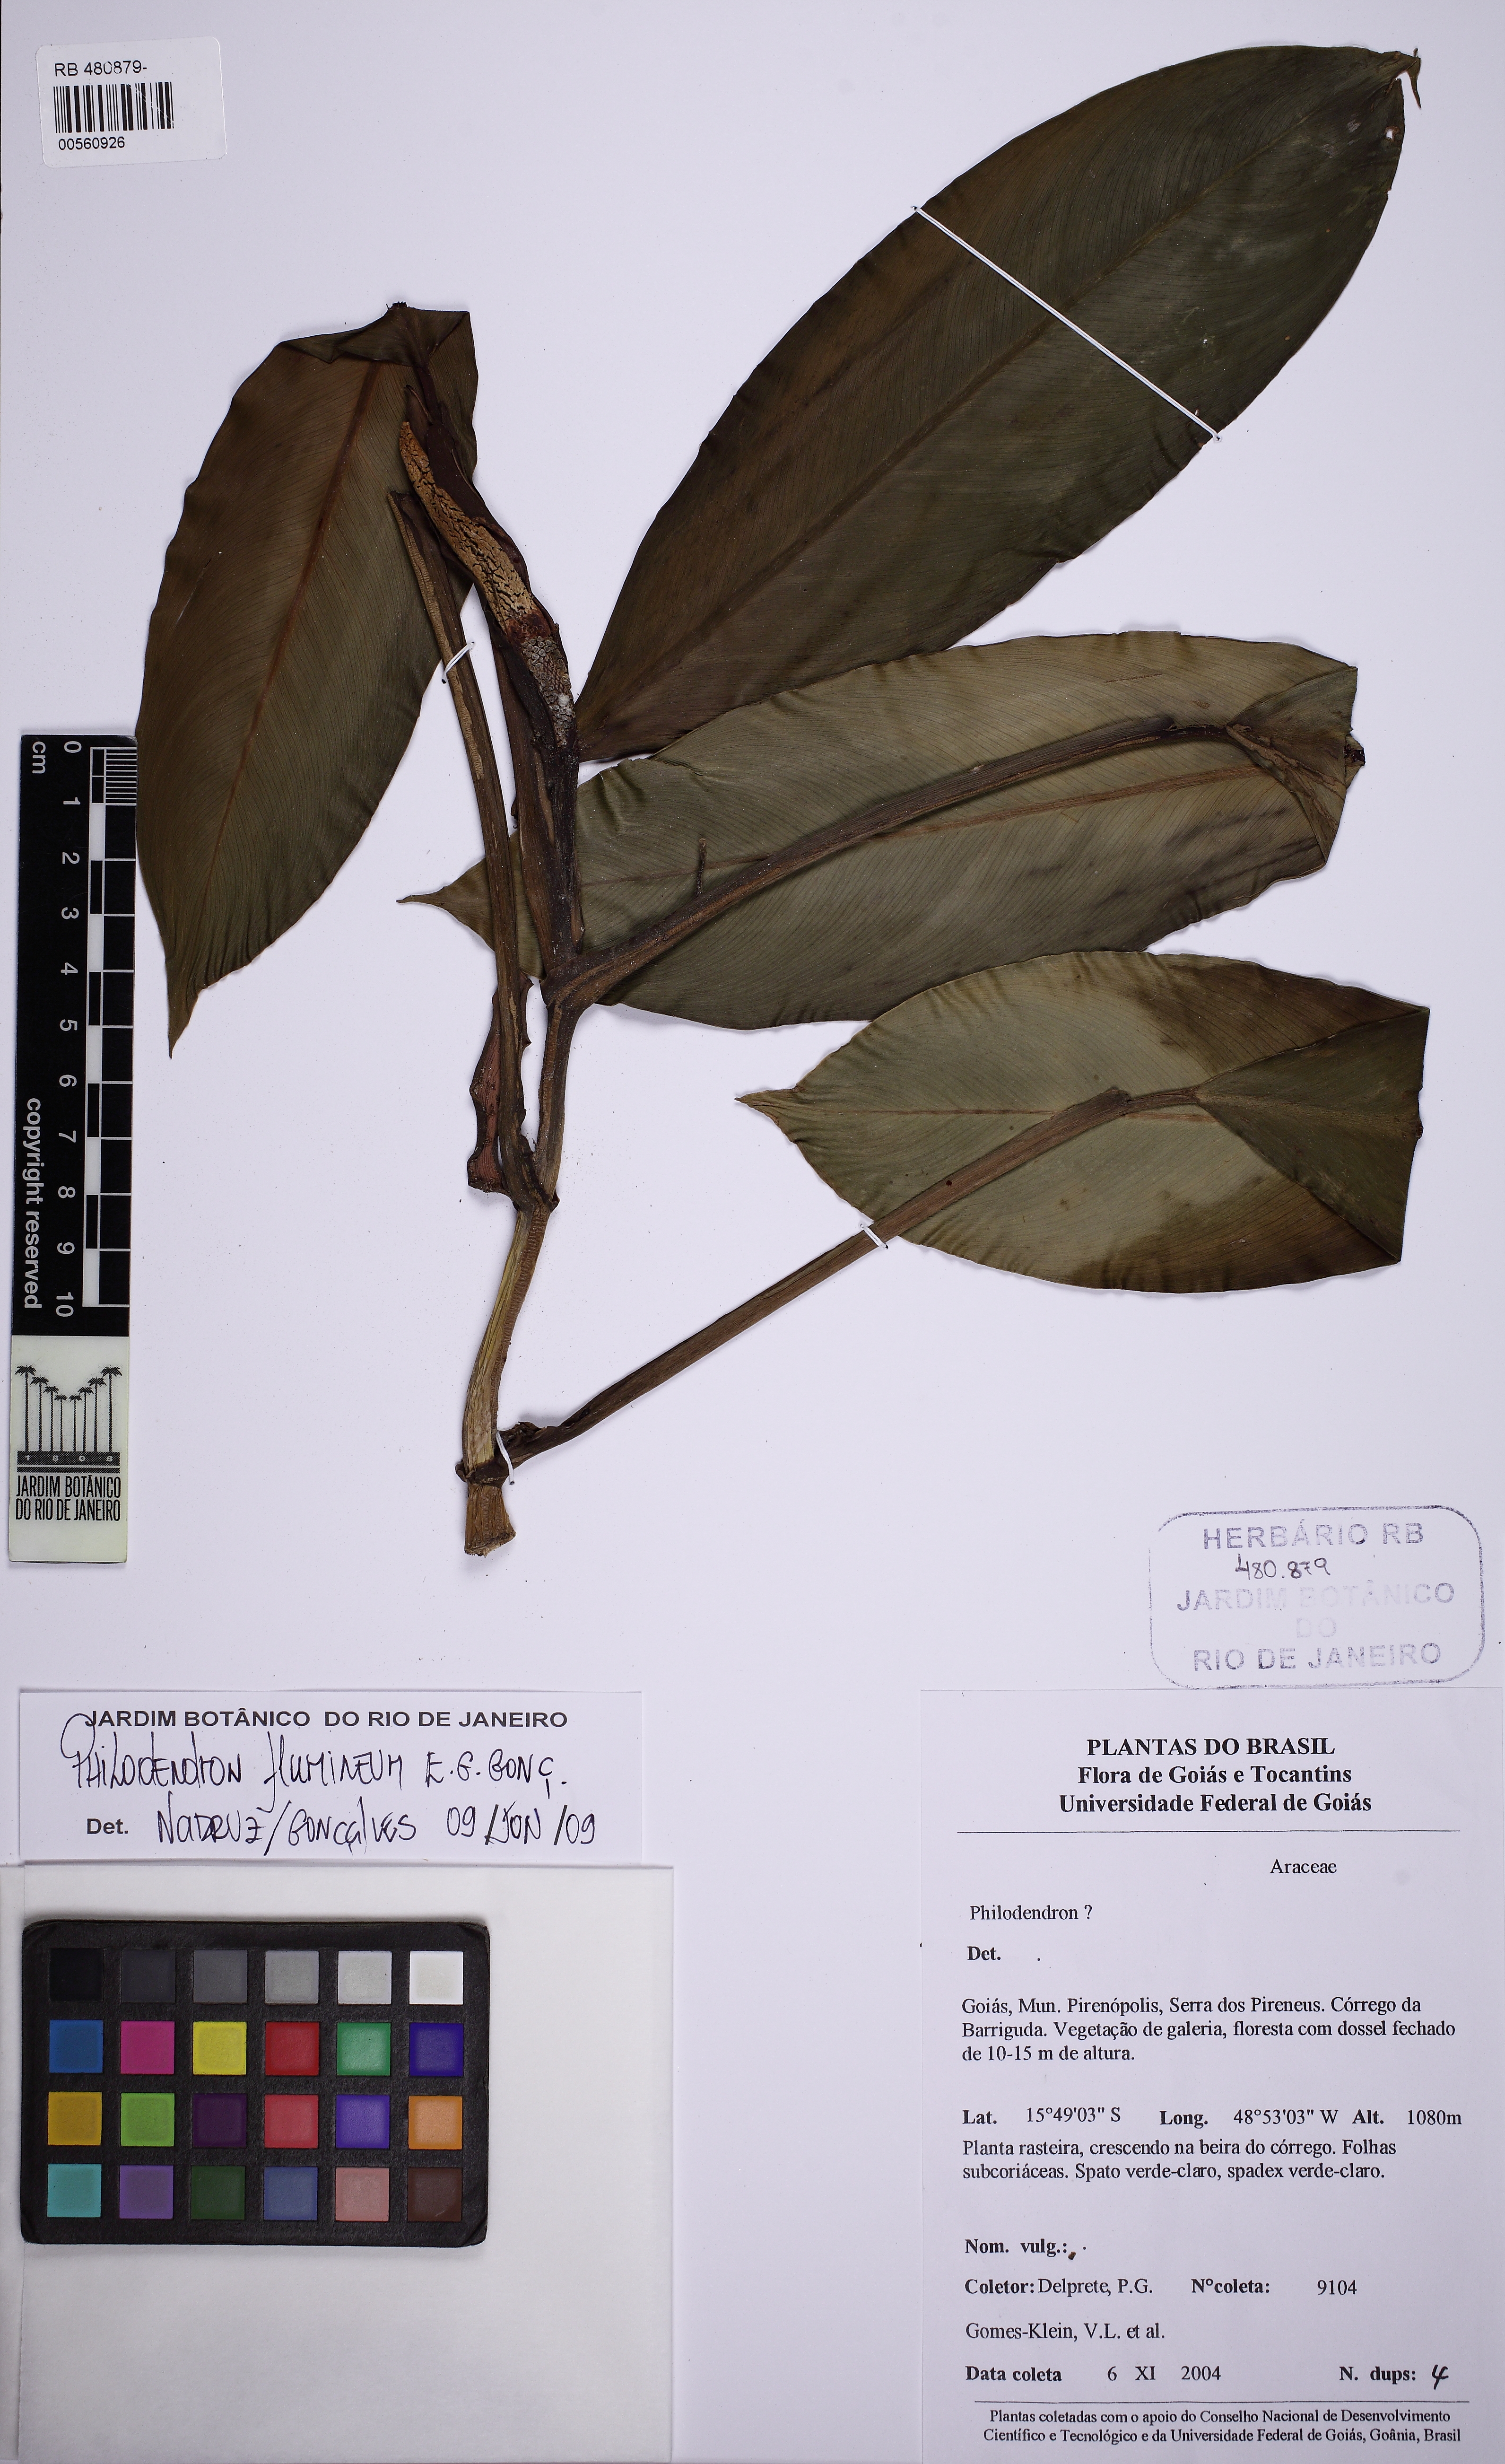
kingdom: Plantae
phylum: Tracheophyta
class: Liliopsida
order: Alismatales
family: Araceae
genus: Philodendron
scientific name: Philodendron flumineum
